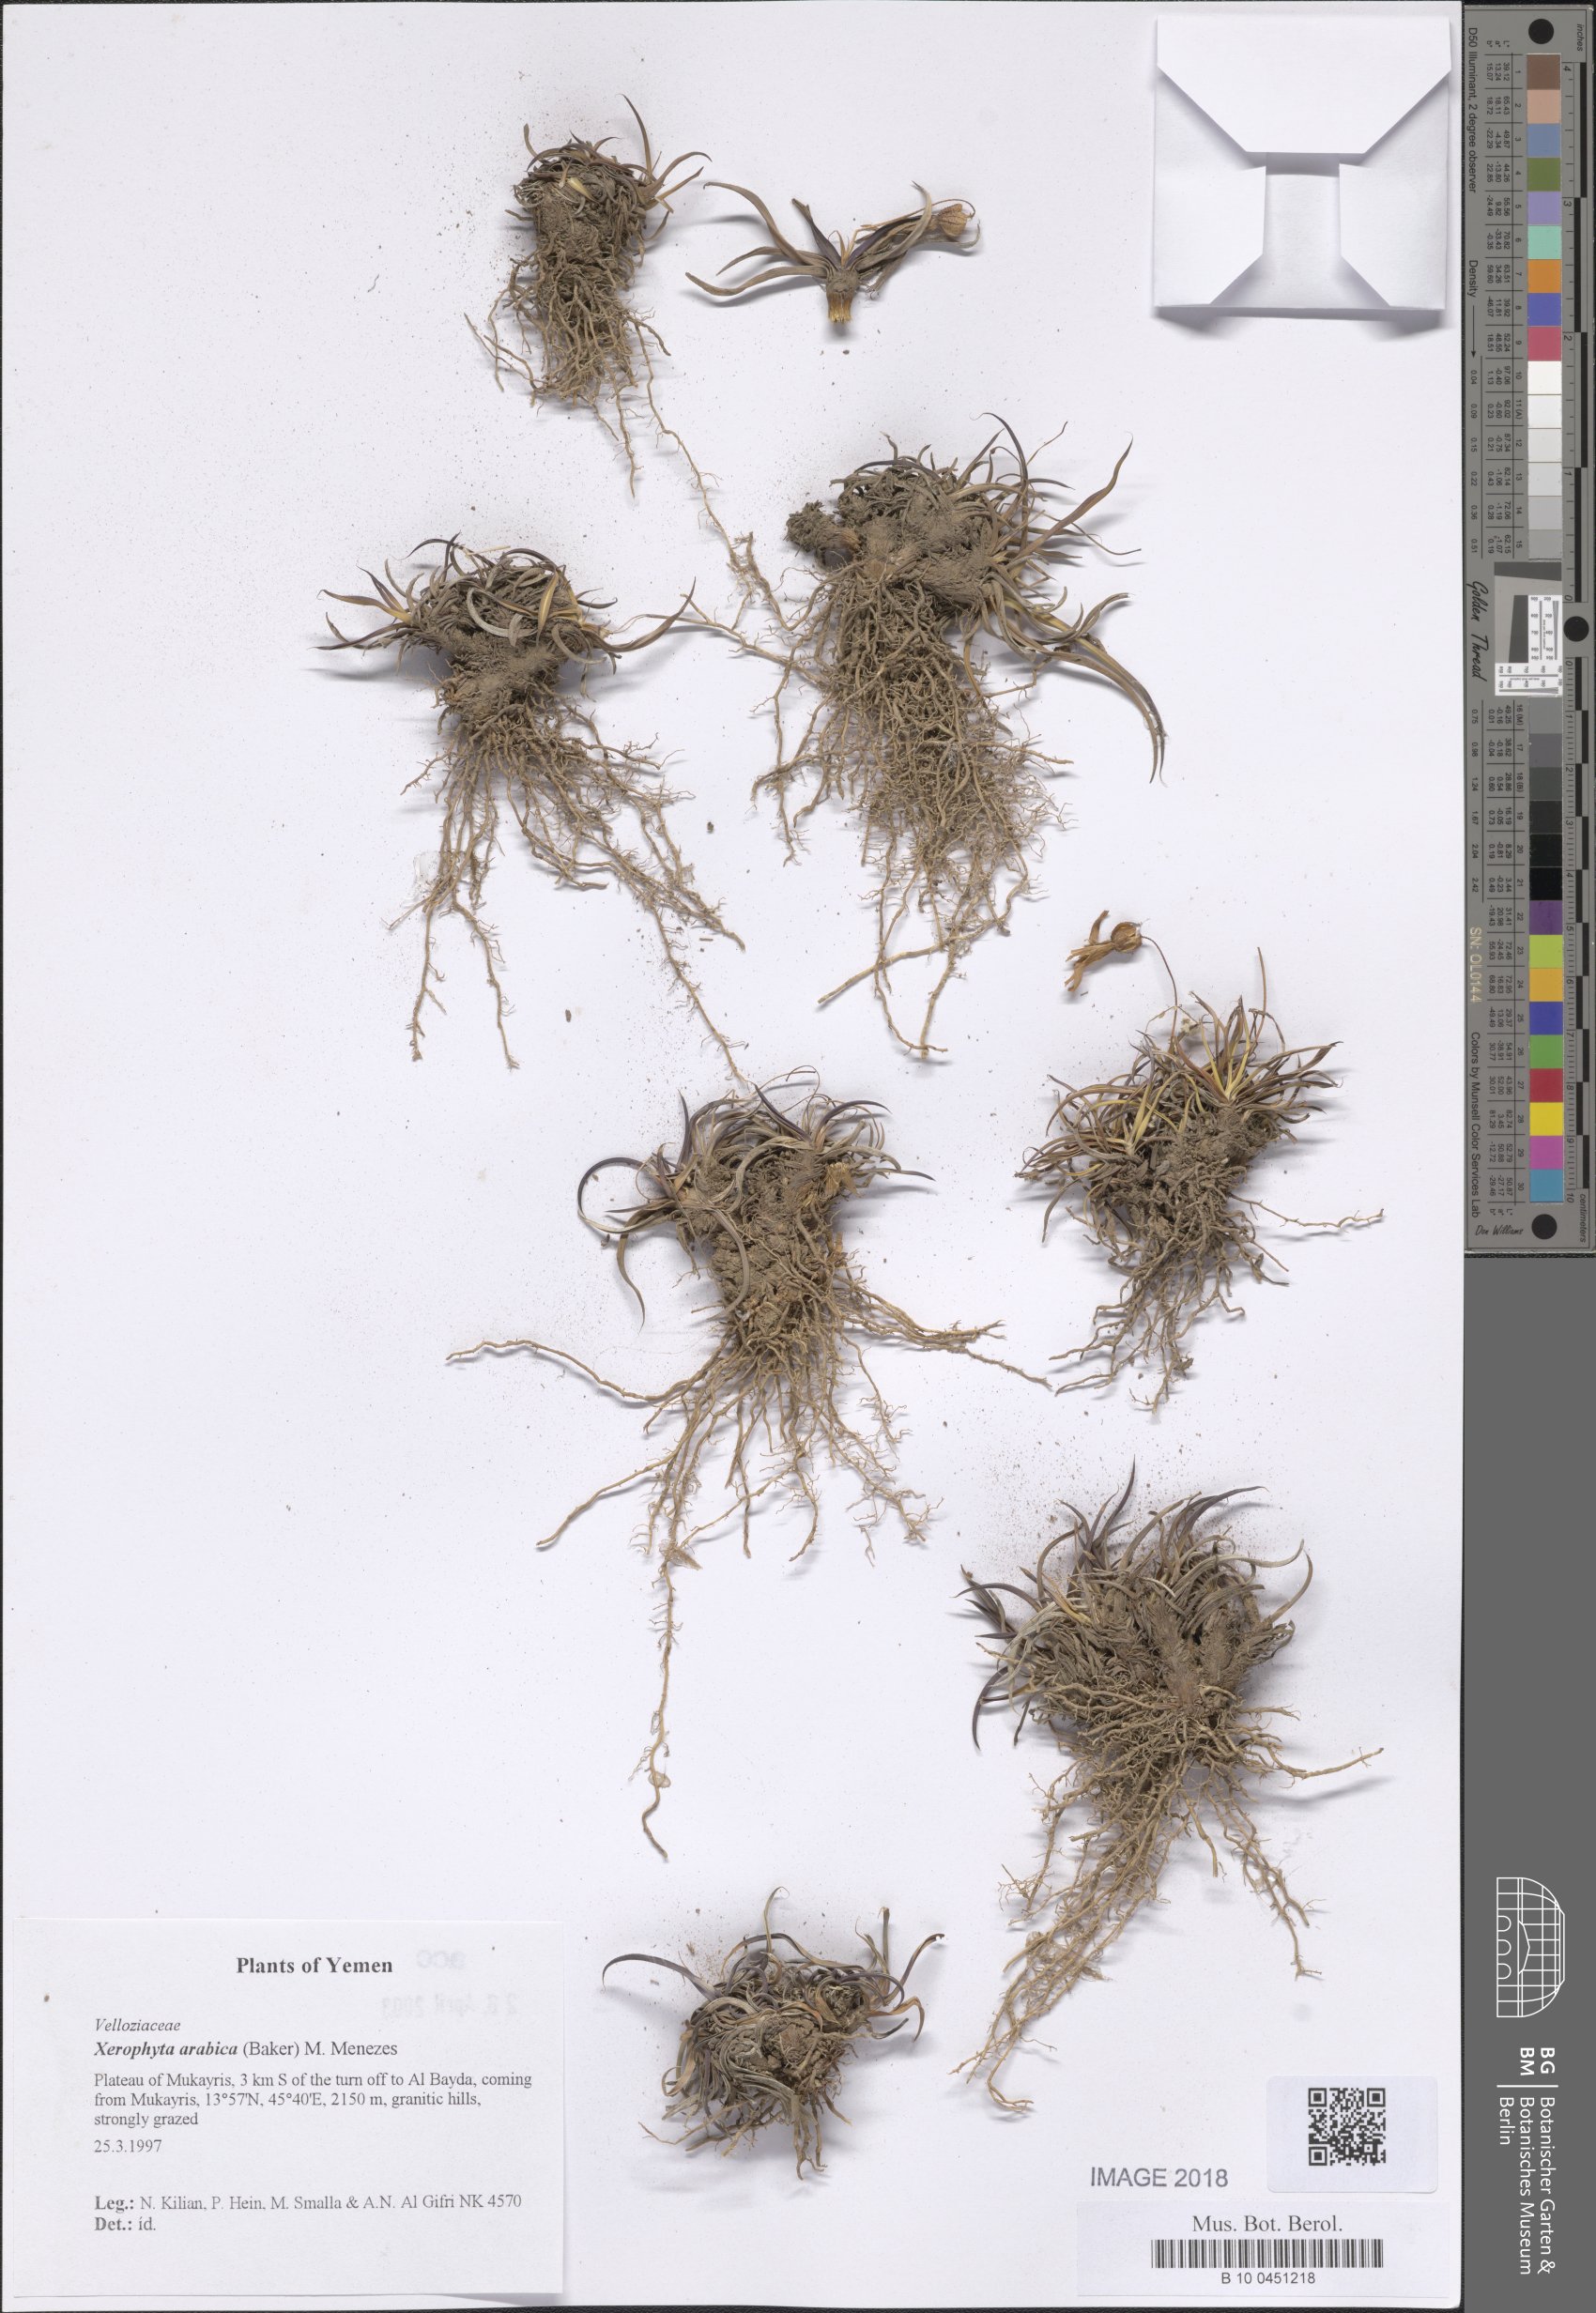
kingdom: Plantae
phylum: Tracheophyta
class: Liliopsida
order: Pandanales
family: Velloziaceae
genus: Xerophyta
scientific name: Xerophyta arabica
